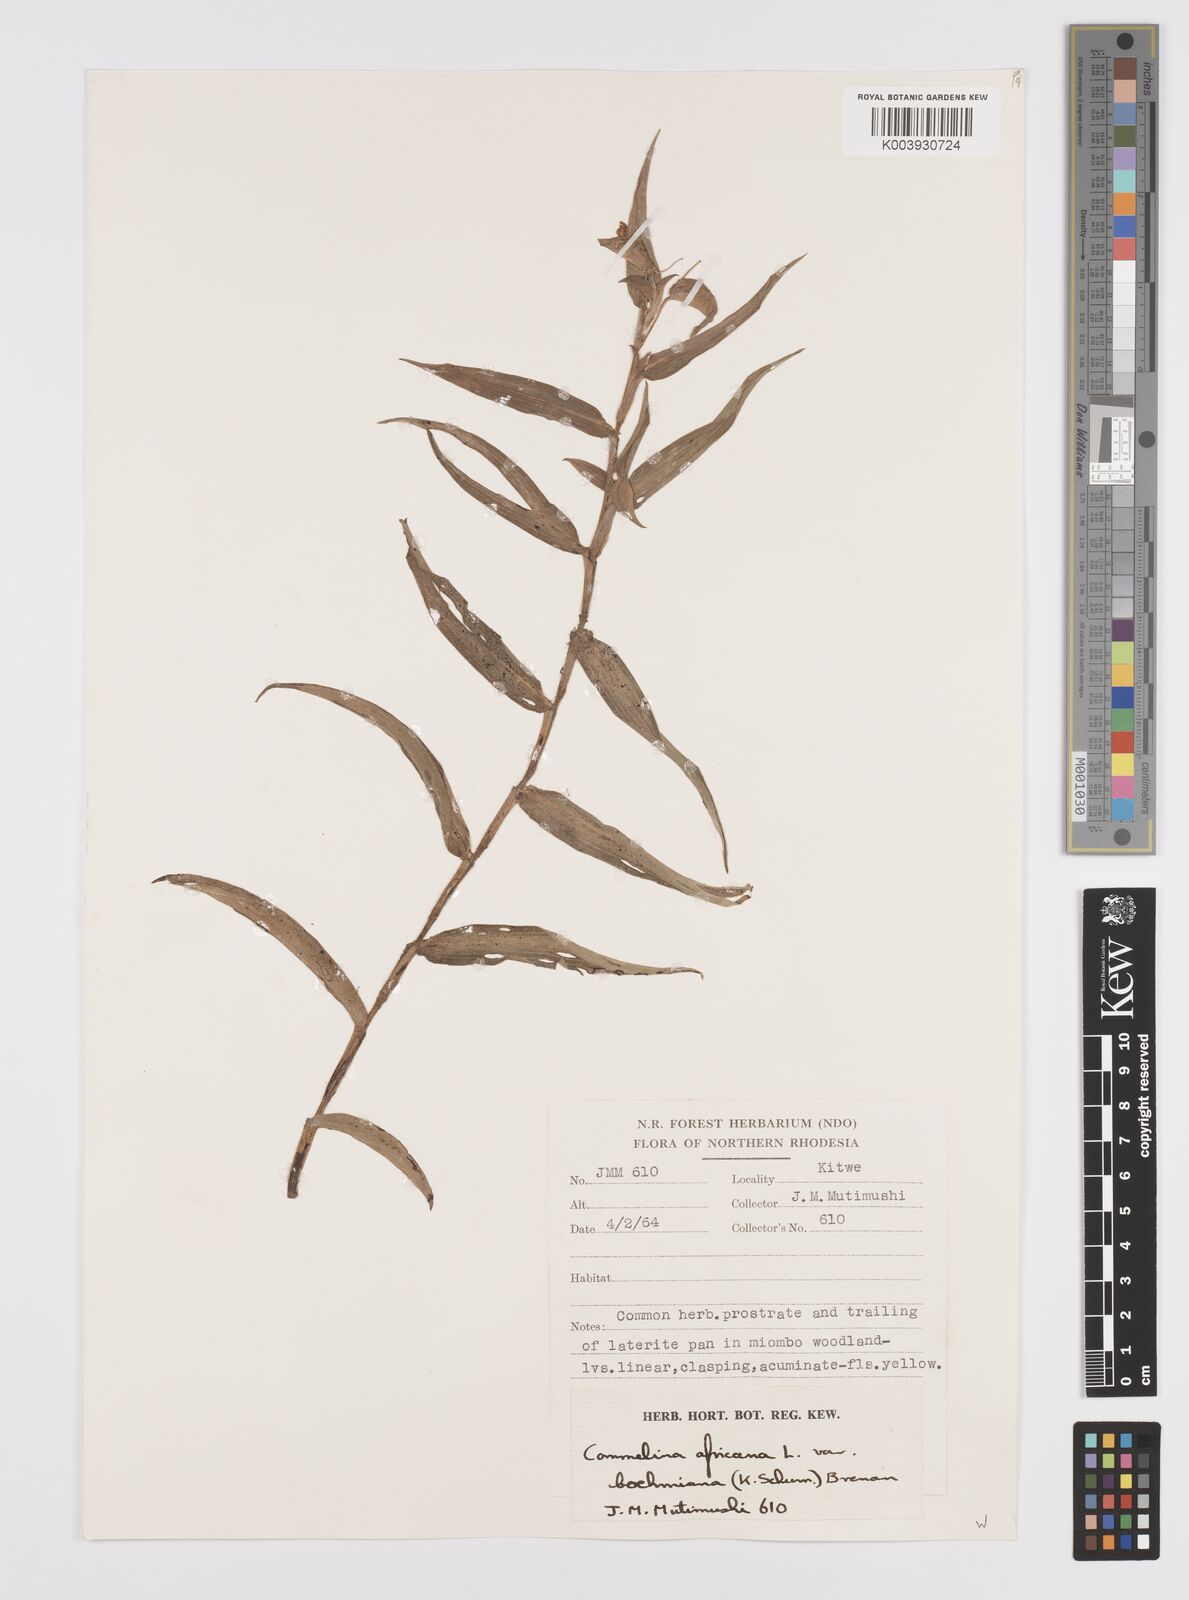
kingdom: Plantae
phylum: Tracheophyta
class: Liliopsida
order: Commelinales
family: Commelinaceae
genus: Commelina
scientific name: Commelina africana
